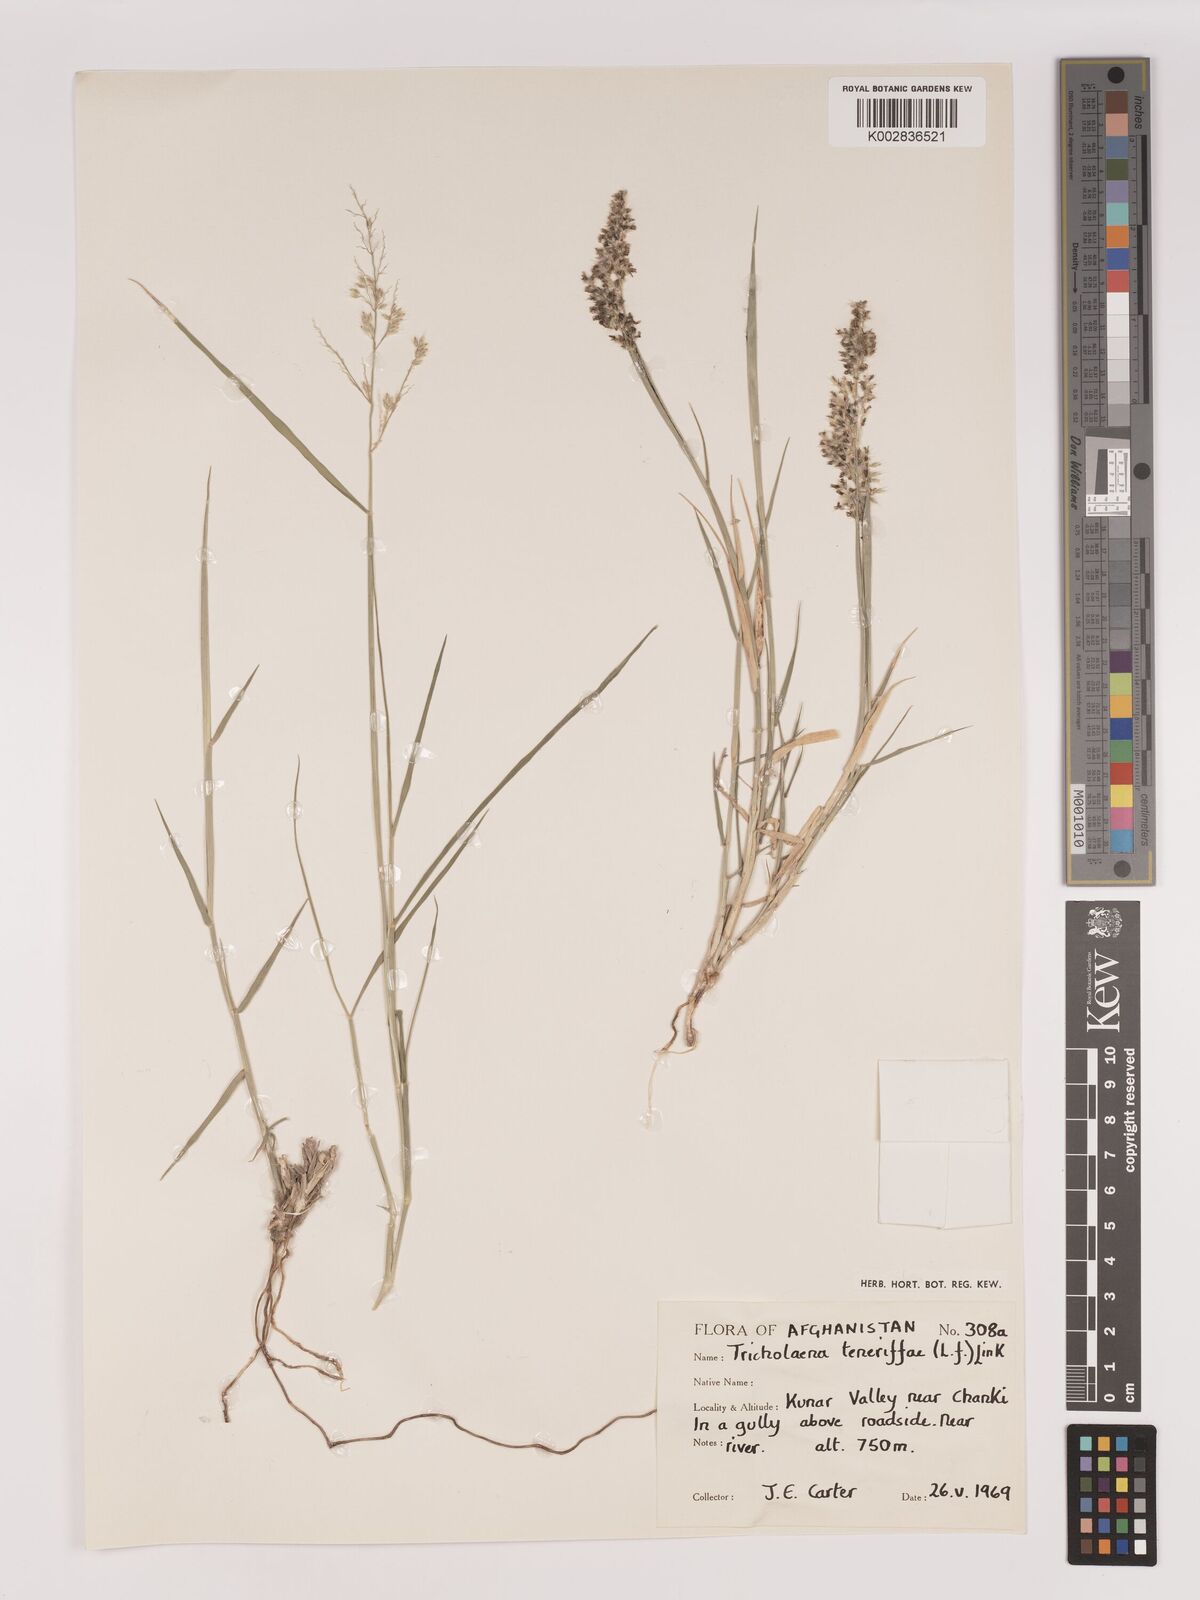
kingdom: Plantae
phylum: Tracheophyta
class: Liliopsida
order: Poales
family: Poaceae
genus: Tricholaena
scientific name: Tricholaena teneriffae
